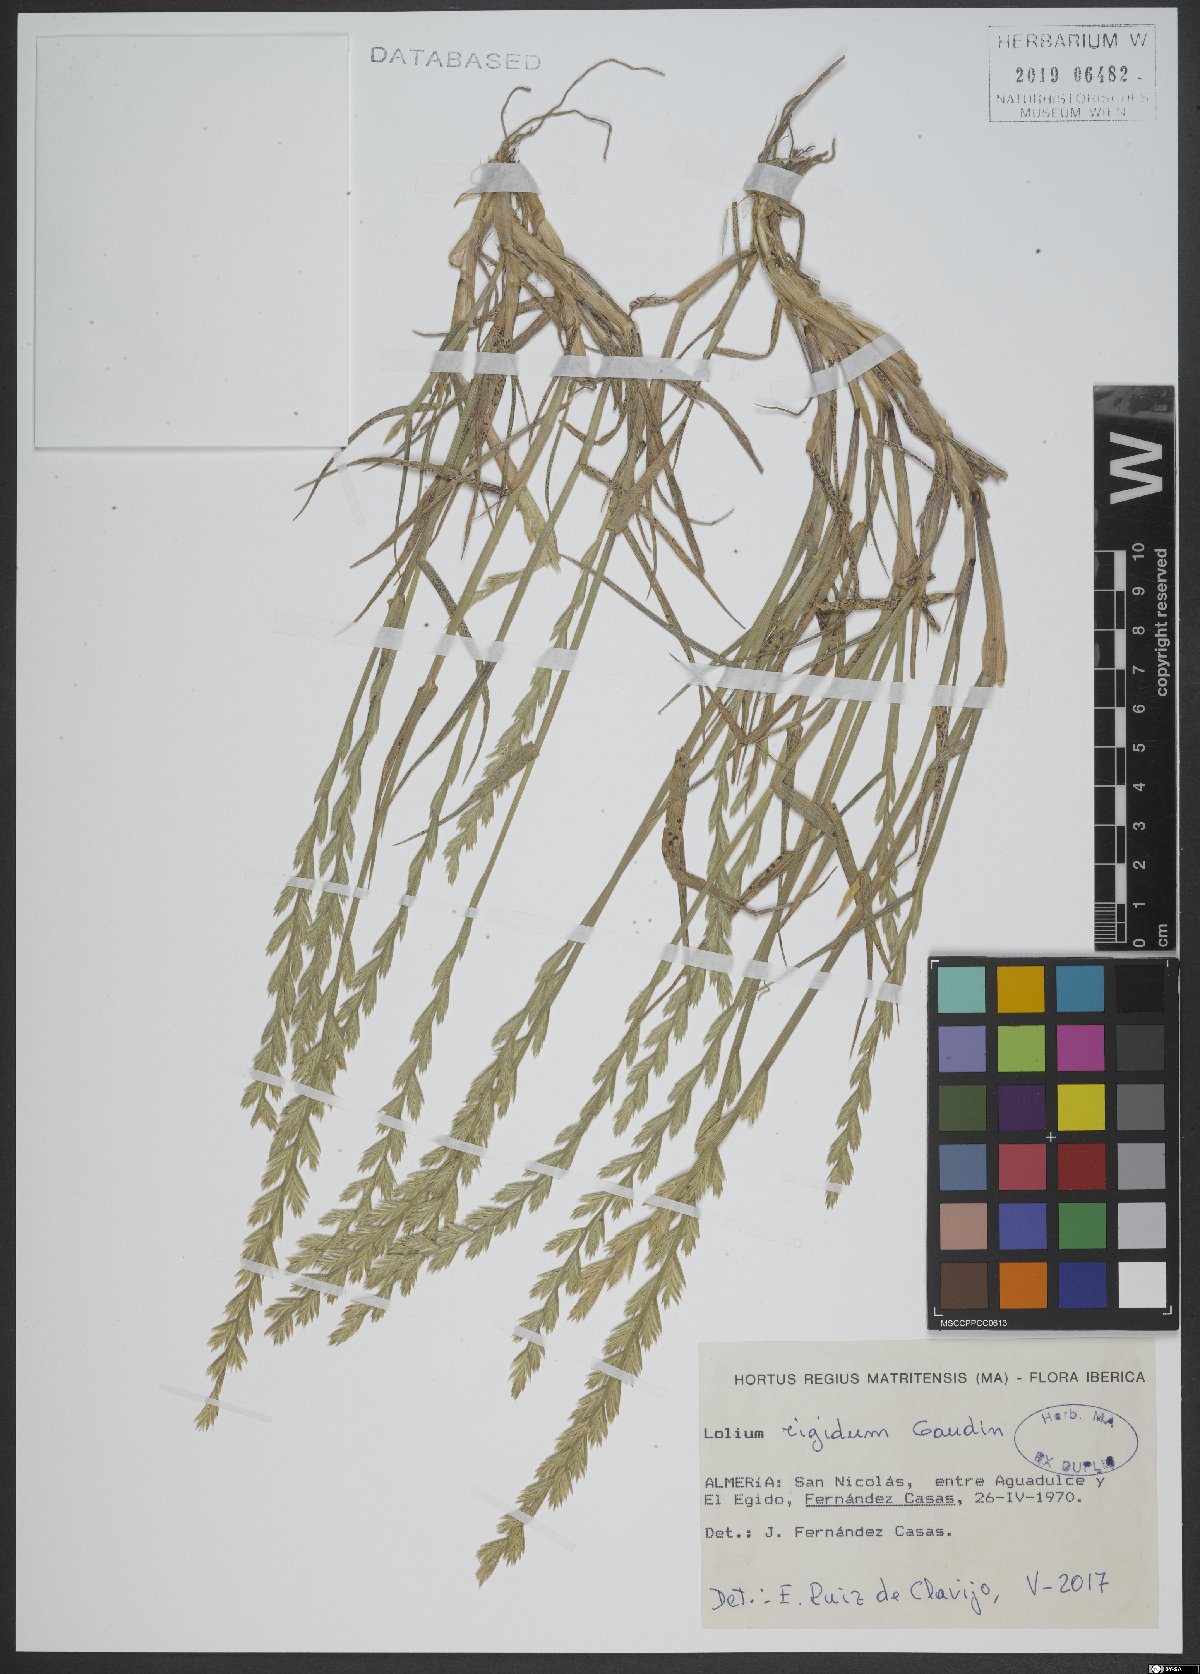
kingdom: Plantae
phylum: Tracheophyta
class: Liliopsida
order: Poales
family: Poaceae
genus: Lolium
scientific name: Lolium rigidum
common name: Wimmera ryegrass
